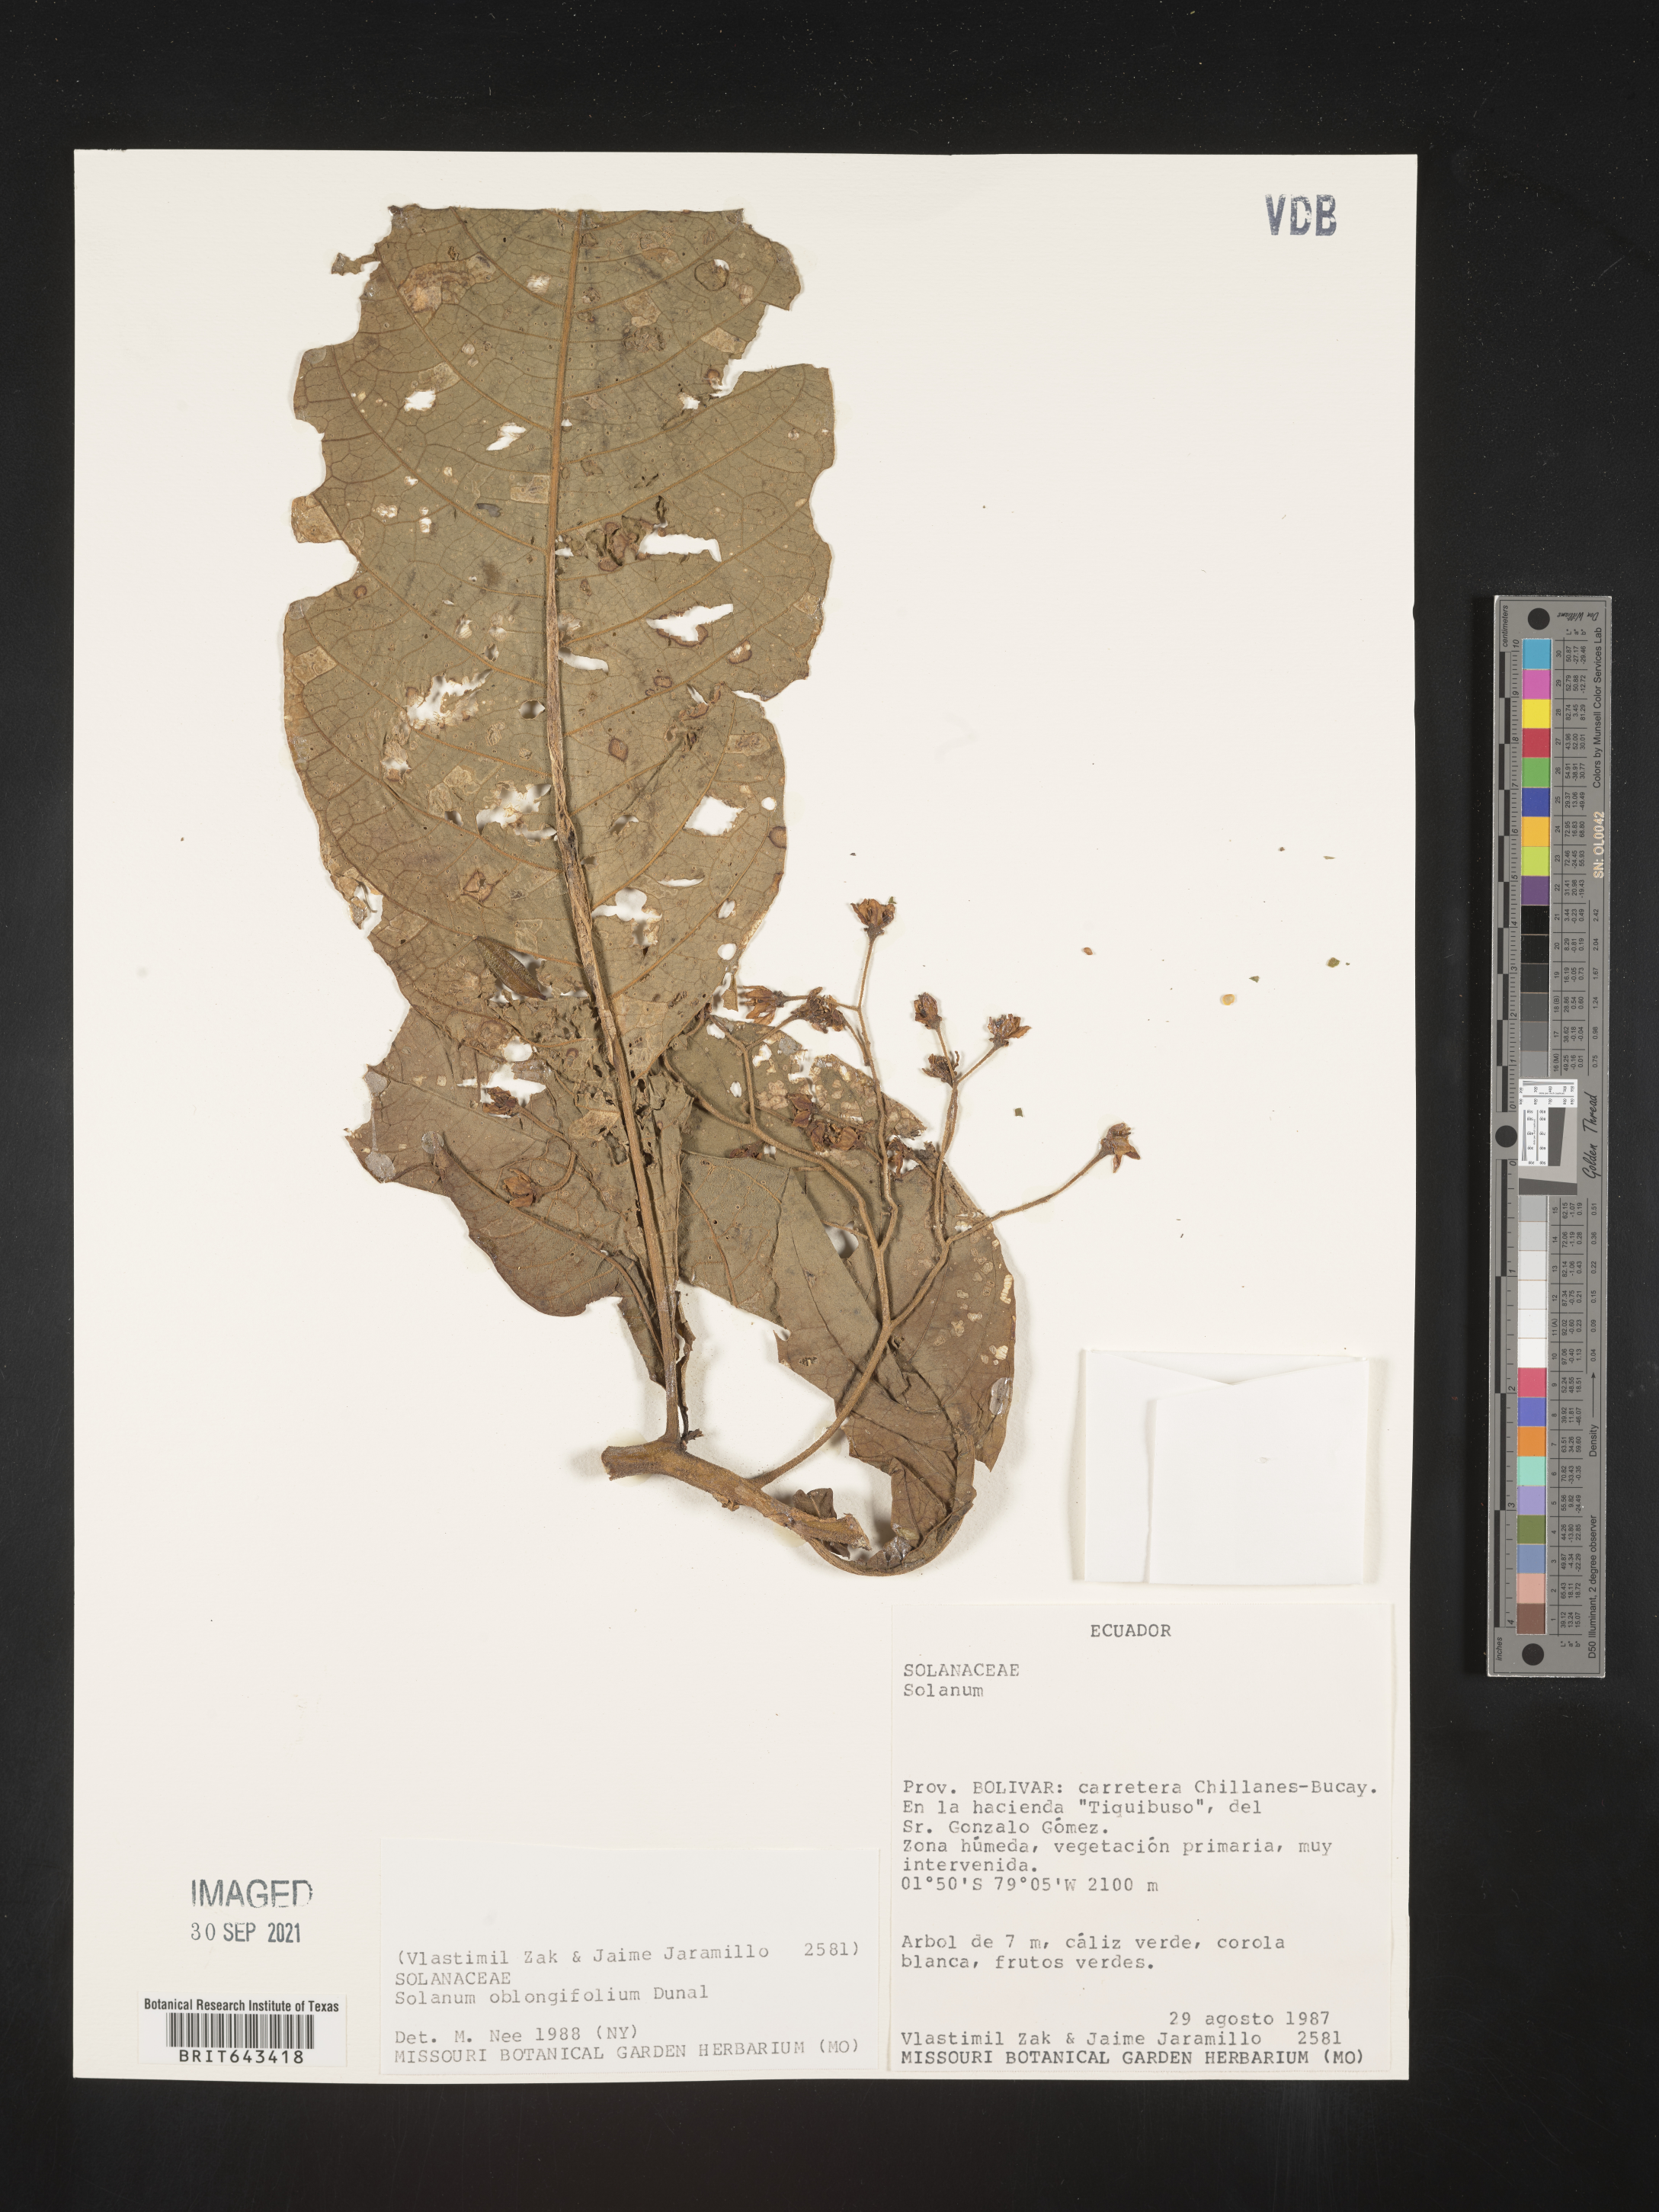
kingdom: Plantae
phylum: Tracheophyta
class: Magnoliopsida
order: Solanales
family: Solanaceae
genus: Solanum
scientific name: Solanum
